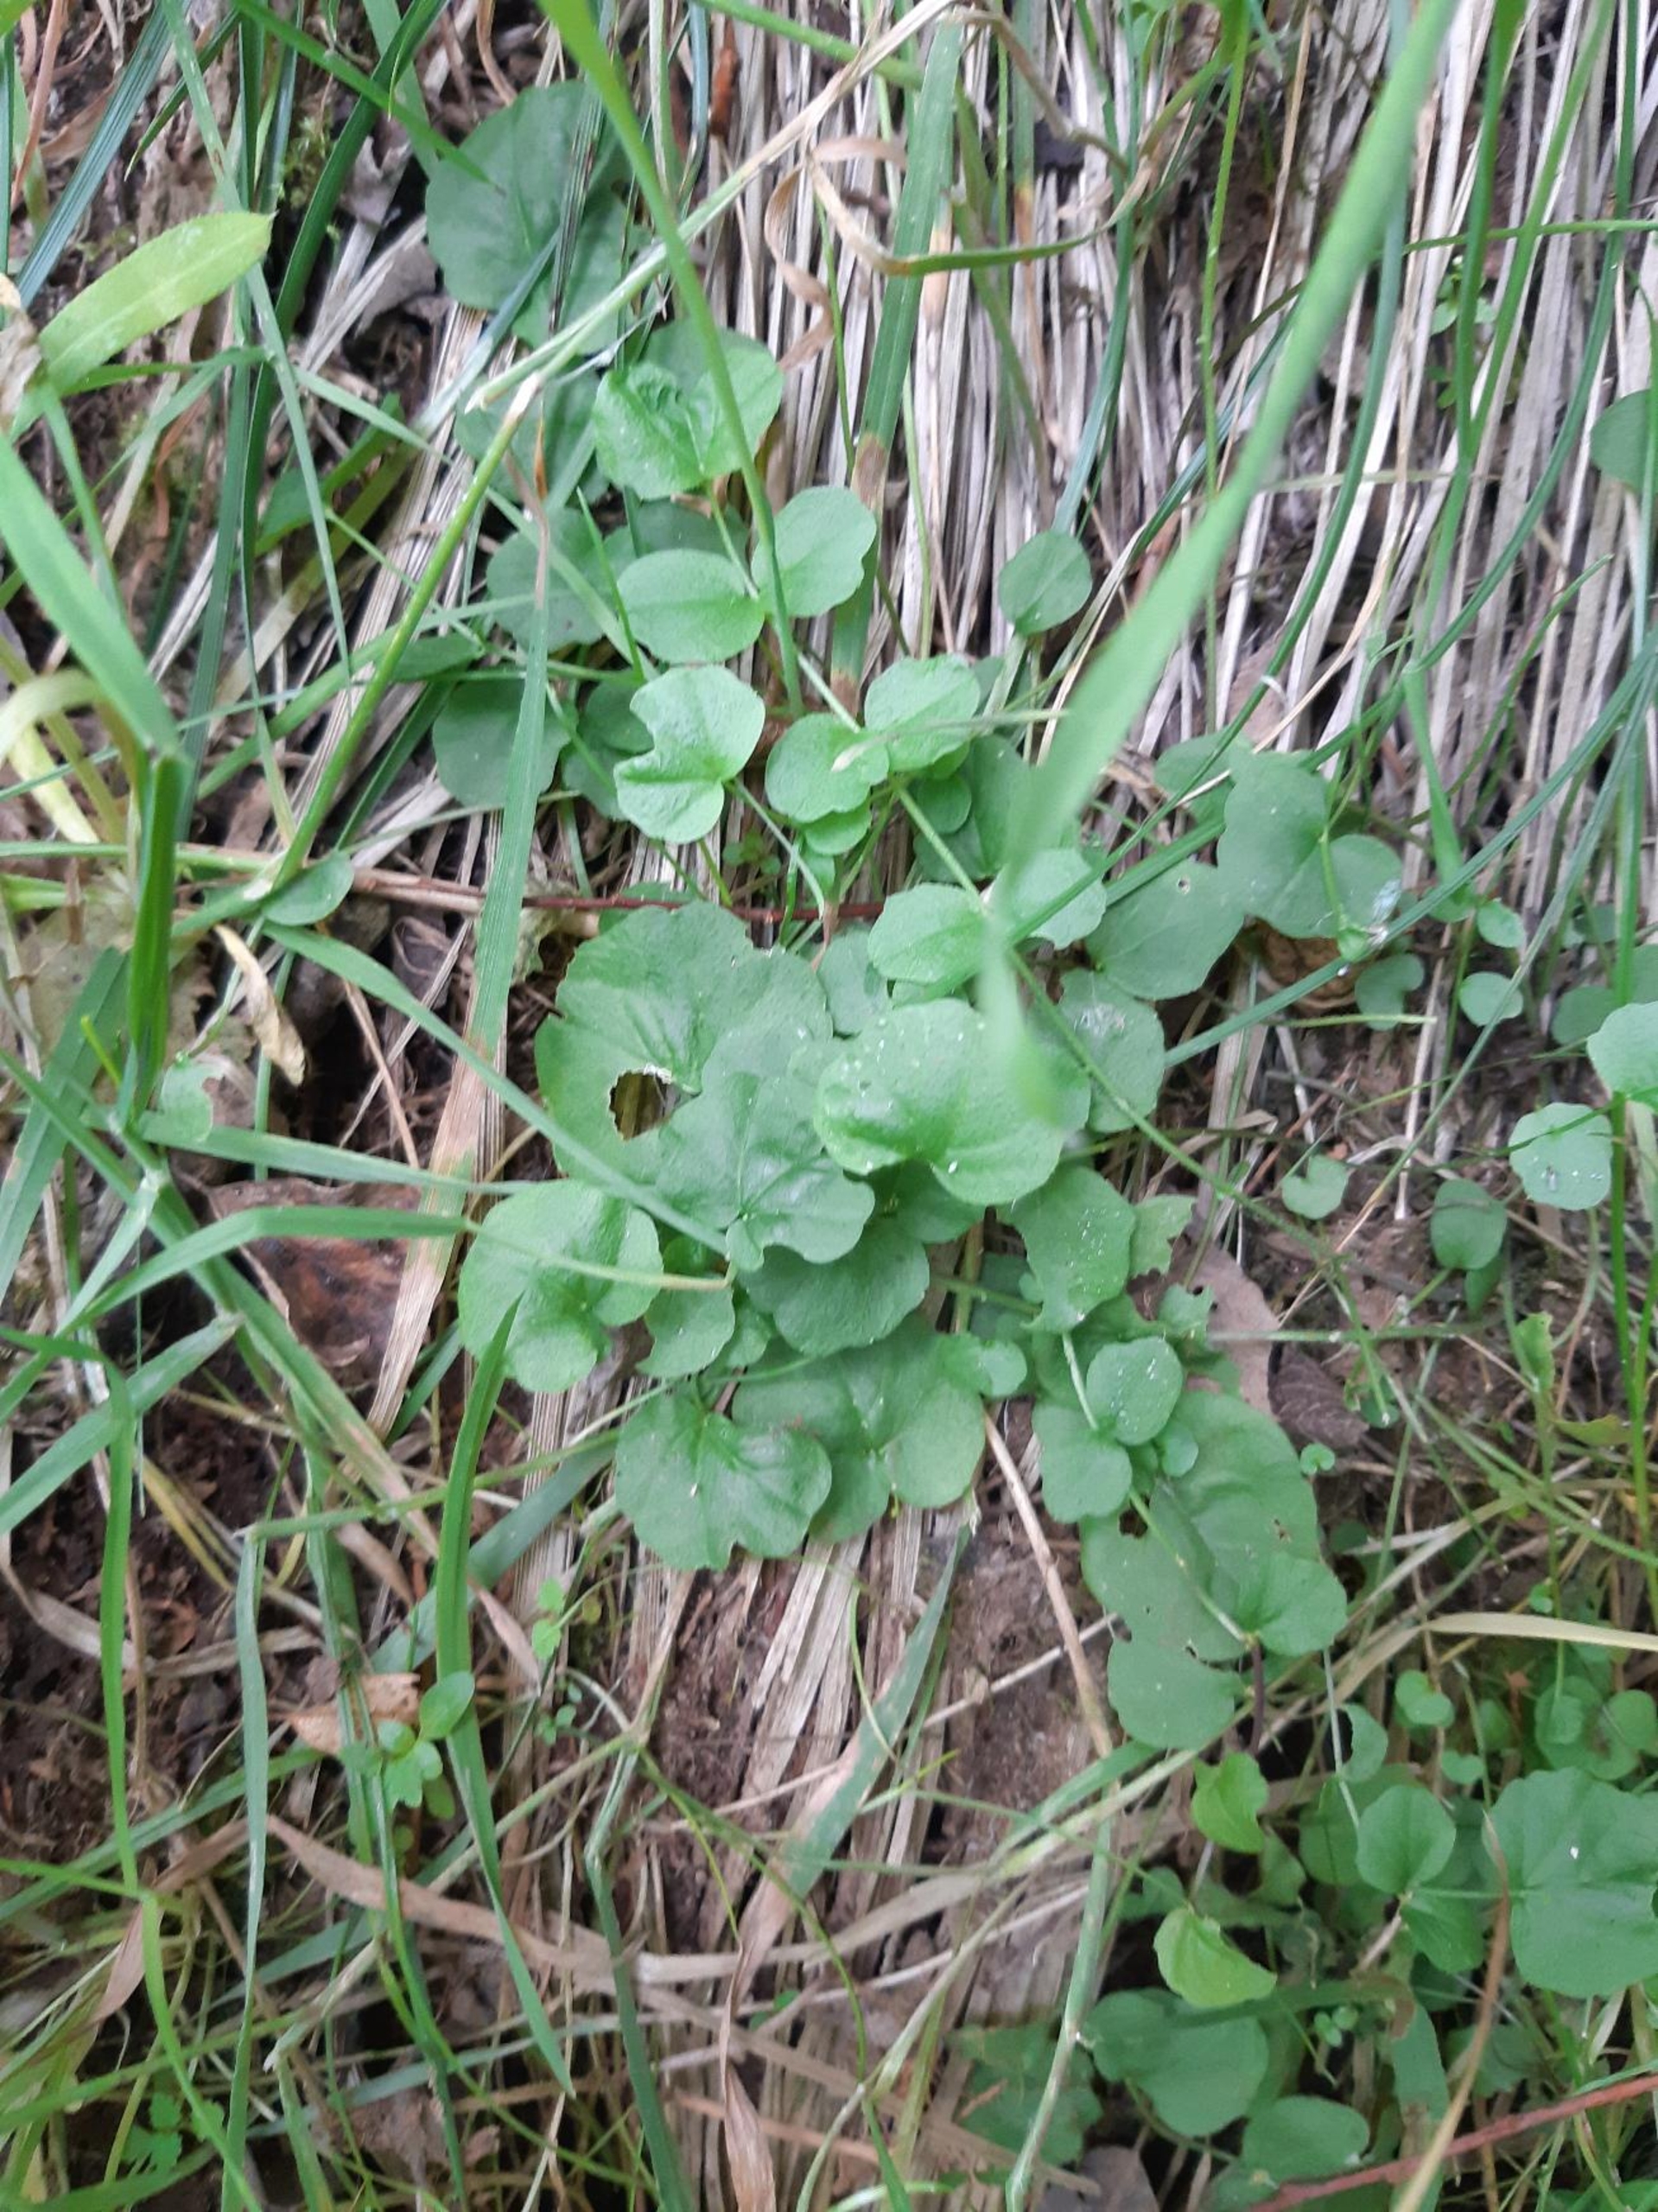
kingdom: Plantae
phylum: Tracheophyta
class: Magnoliopsida
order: Brassicales
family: Brassicaceae
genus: Cardamine
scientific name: Cardamine pratensis
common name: Engkarse
